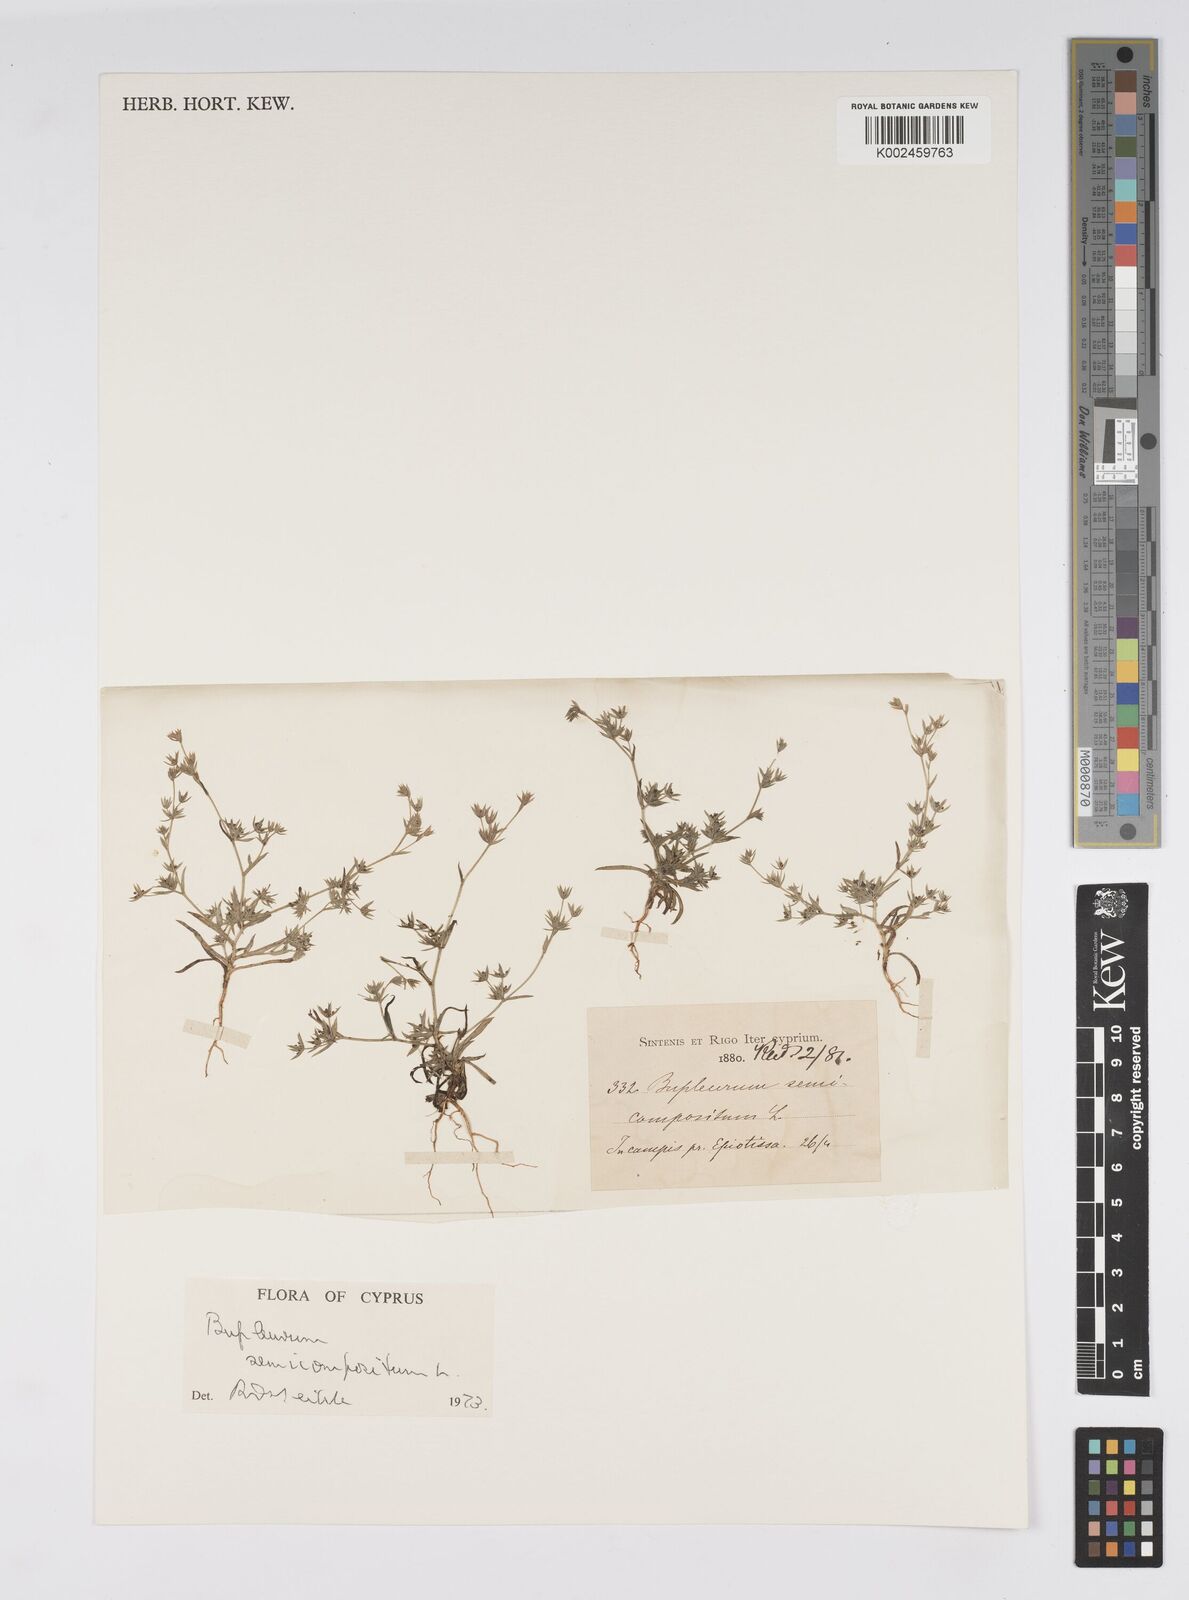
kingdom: Plantae
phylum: Tracheophyta
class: Magnoliopsida
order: Apiales
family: Apiaceae
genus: Bupleurum
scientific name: Bupleurum semicompositum
